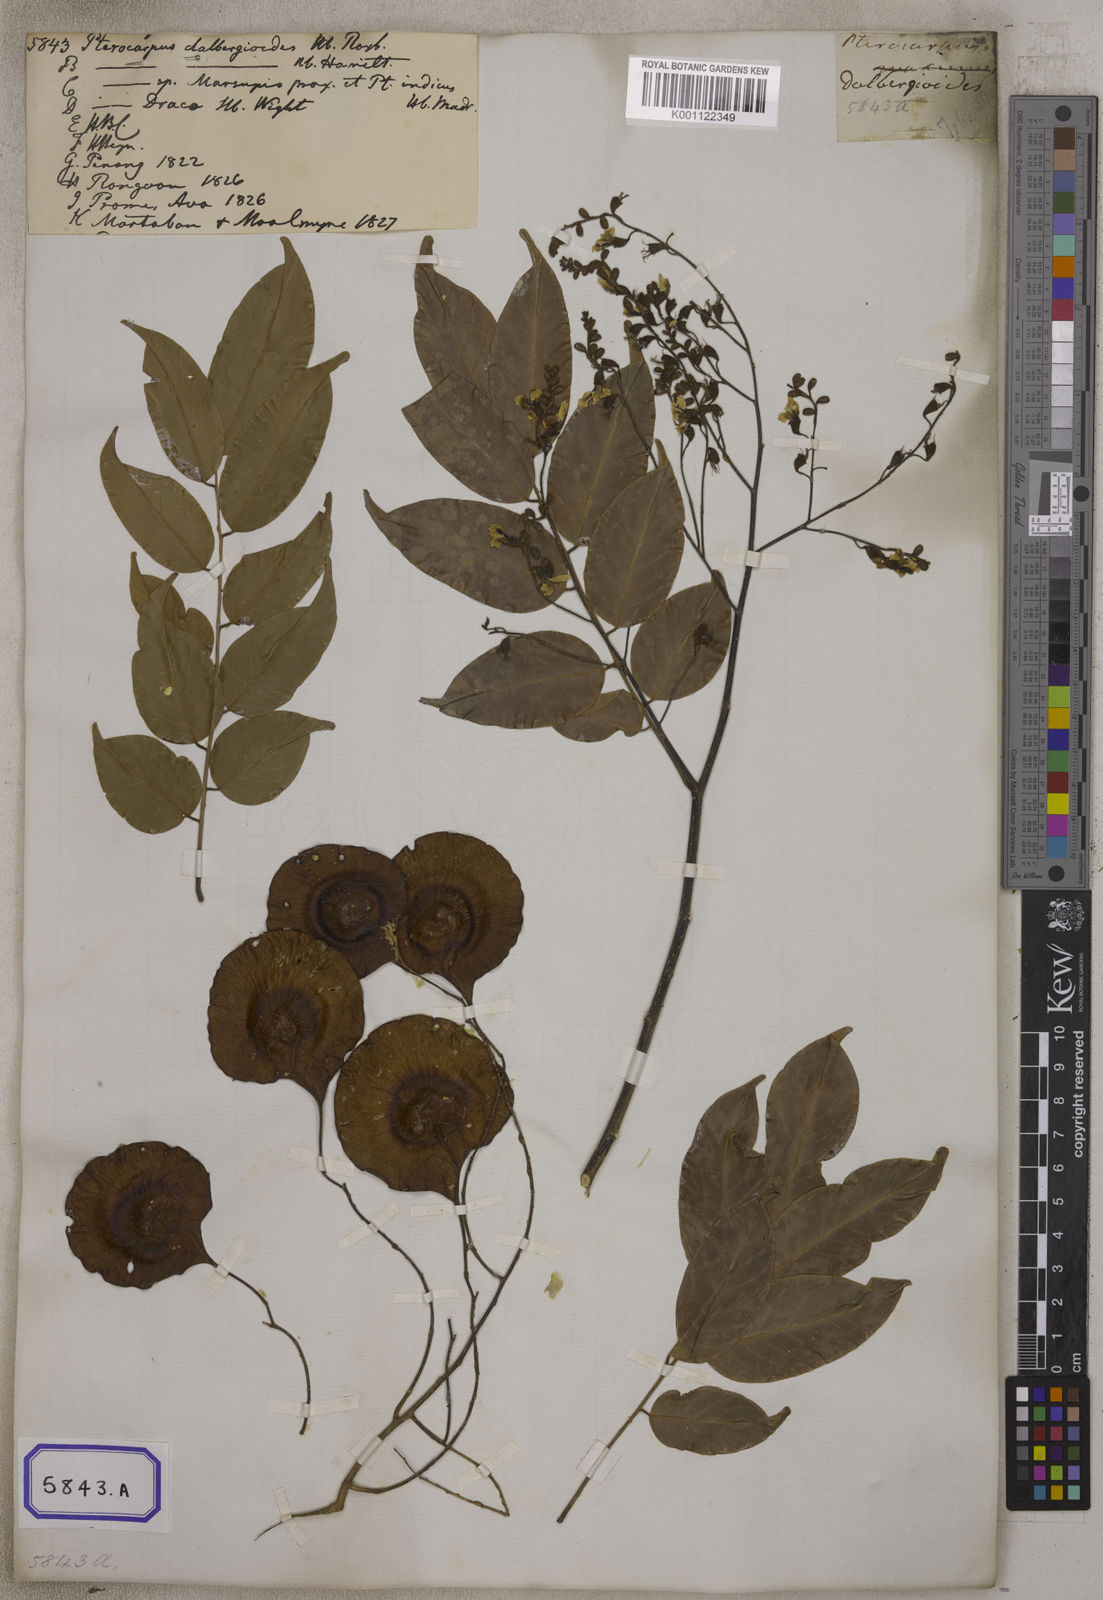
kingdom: Plantae
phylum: Tracheophyta
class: Magnoliopsida
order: Fabales
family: Fabaceae
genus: Pterocarpus
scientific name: Pterocarpus
